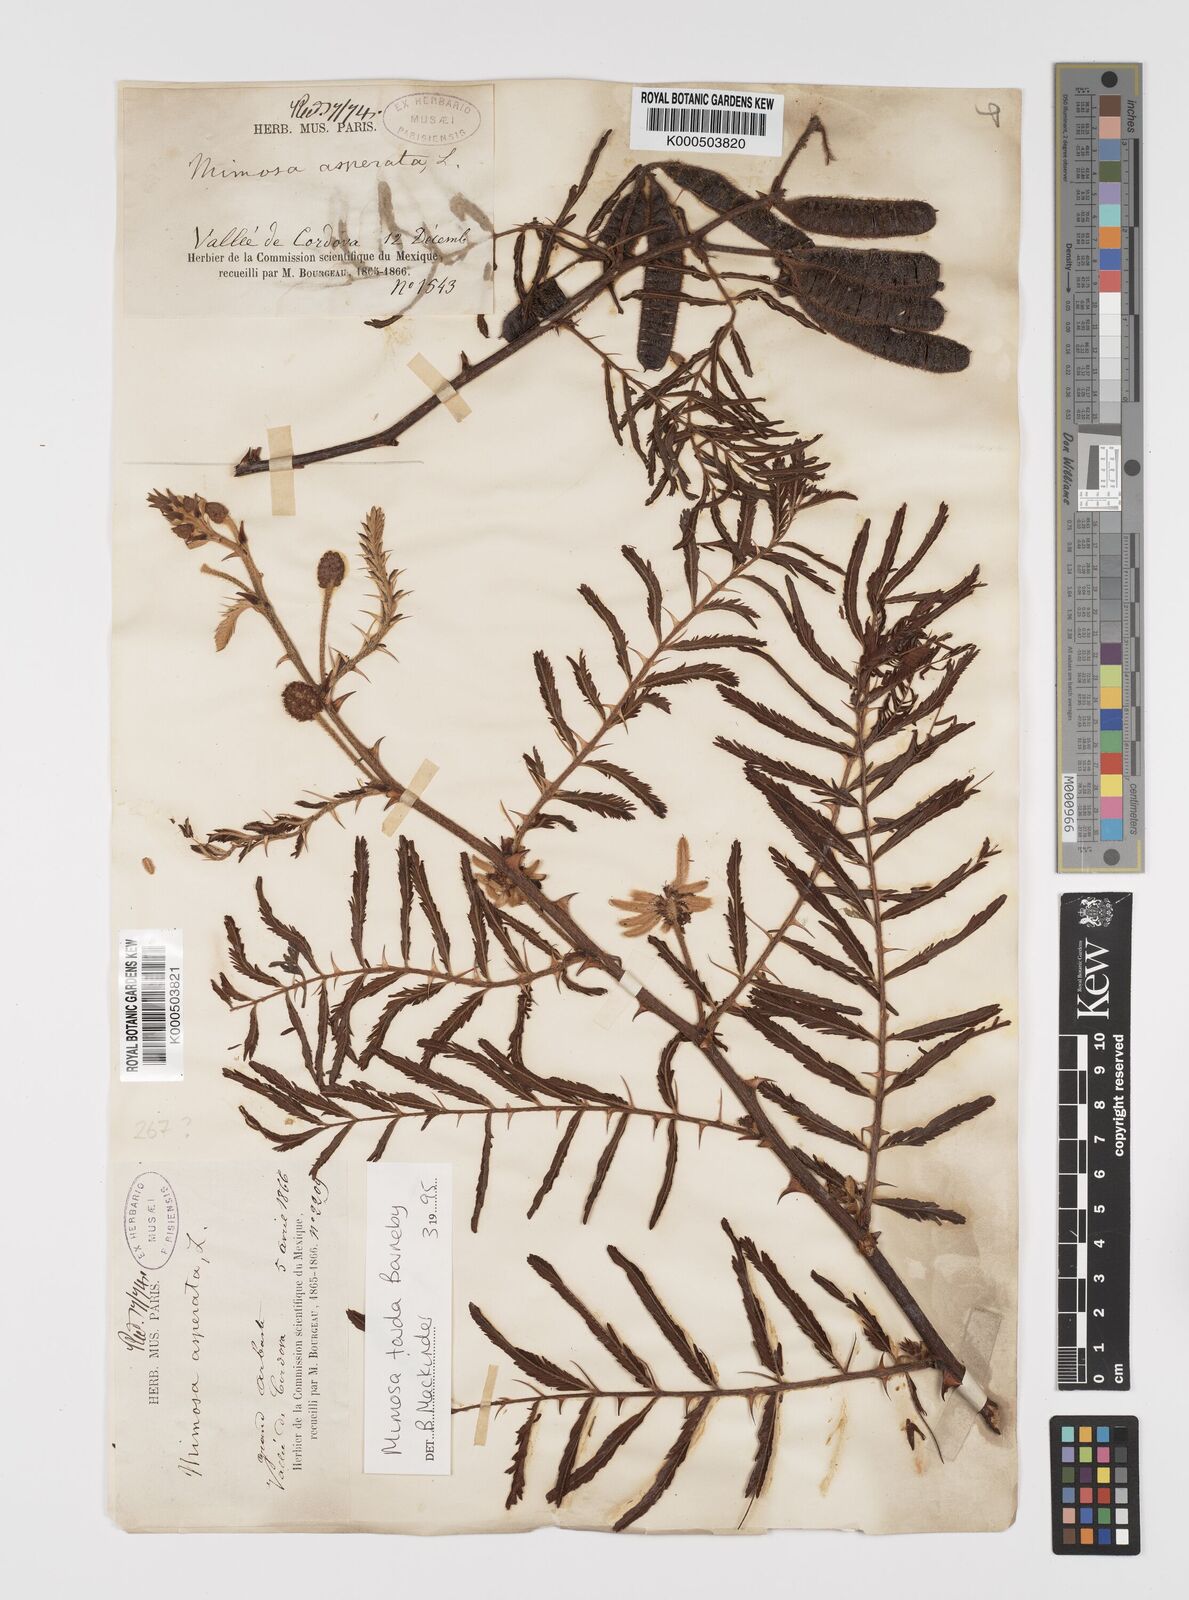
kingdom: Plantae
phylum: Tracheophyta
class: Magnoliopsida
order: Fabales
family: Fabaceae
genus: Mimosa
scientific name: Mimosa tarda
